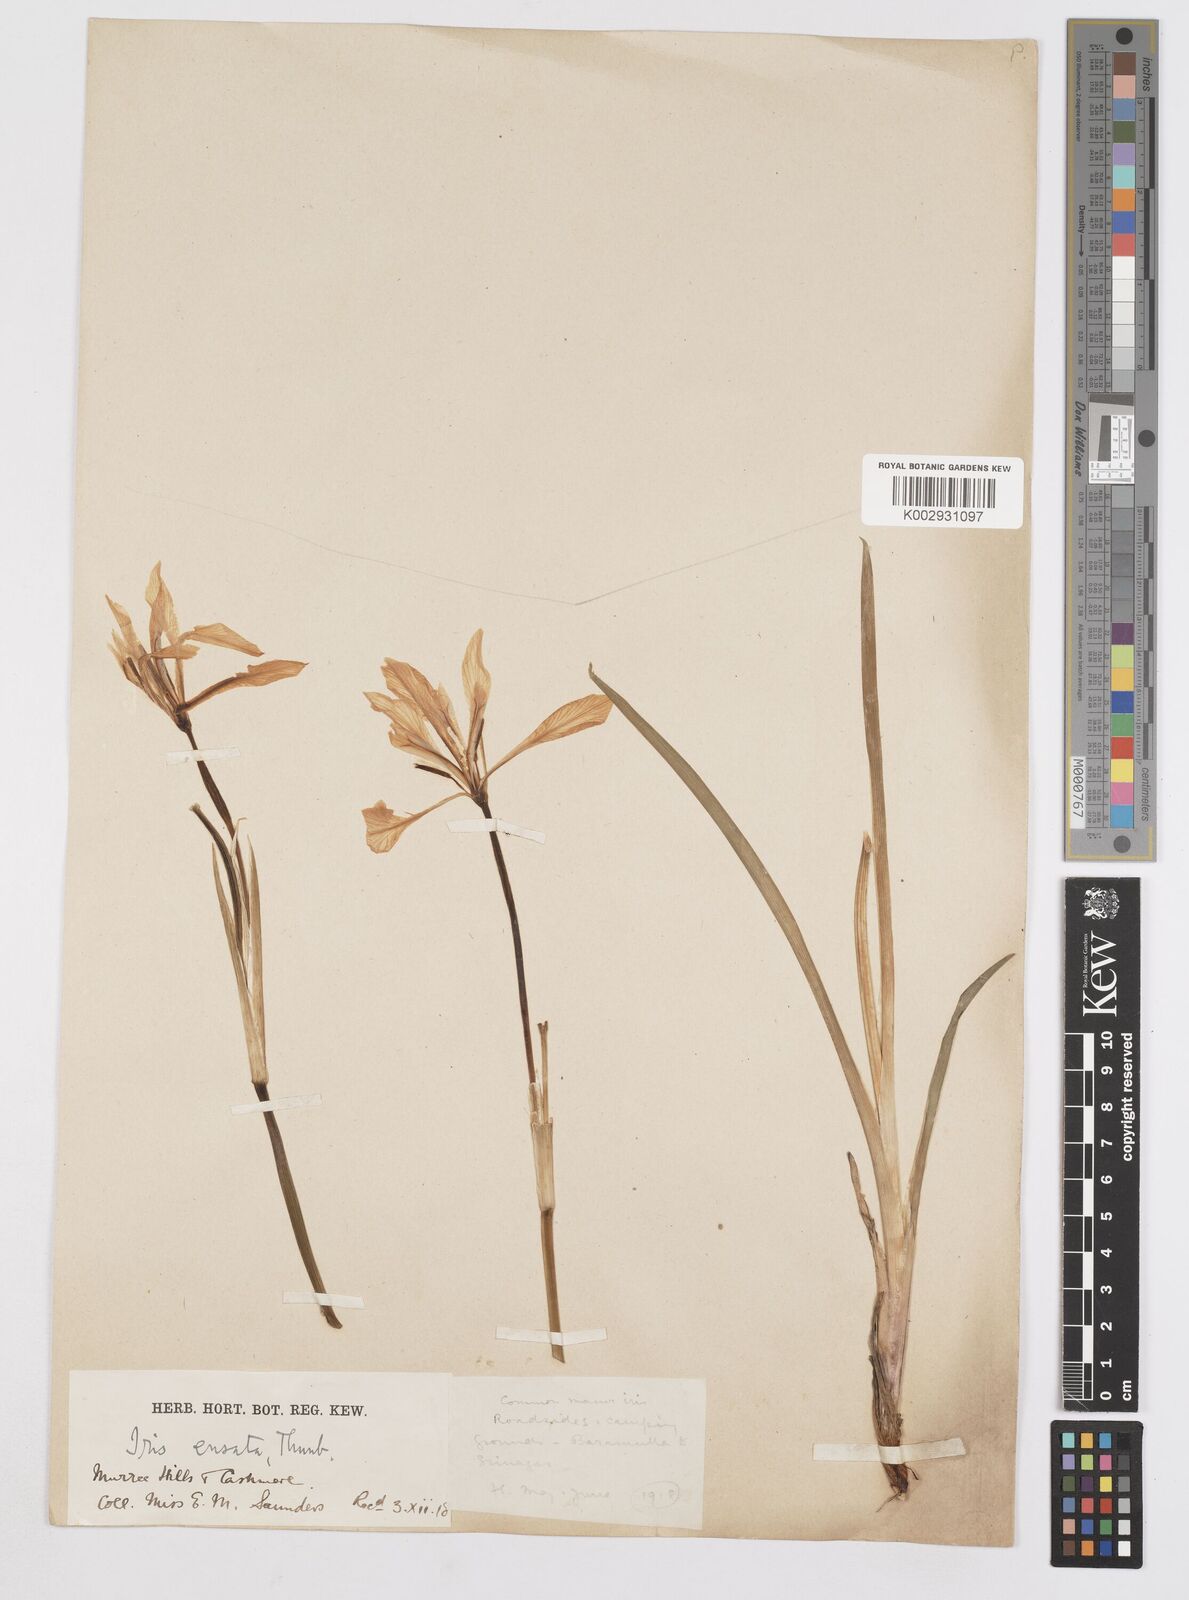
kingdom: Plantae
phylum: Tracheophyta
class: Liliopsida
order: Asparagales
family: Iridaceae
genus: Iris
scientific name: Iris ensata
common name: Beaked iris
